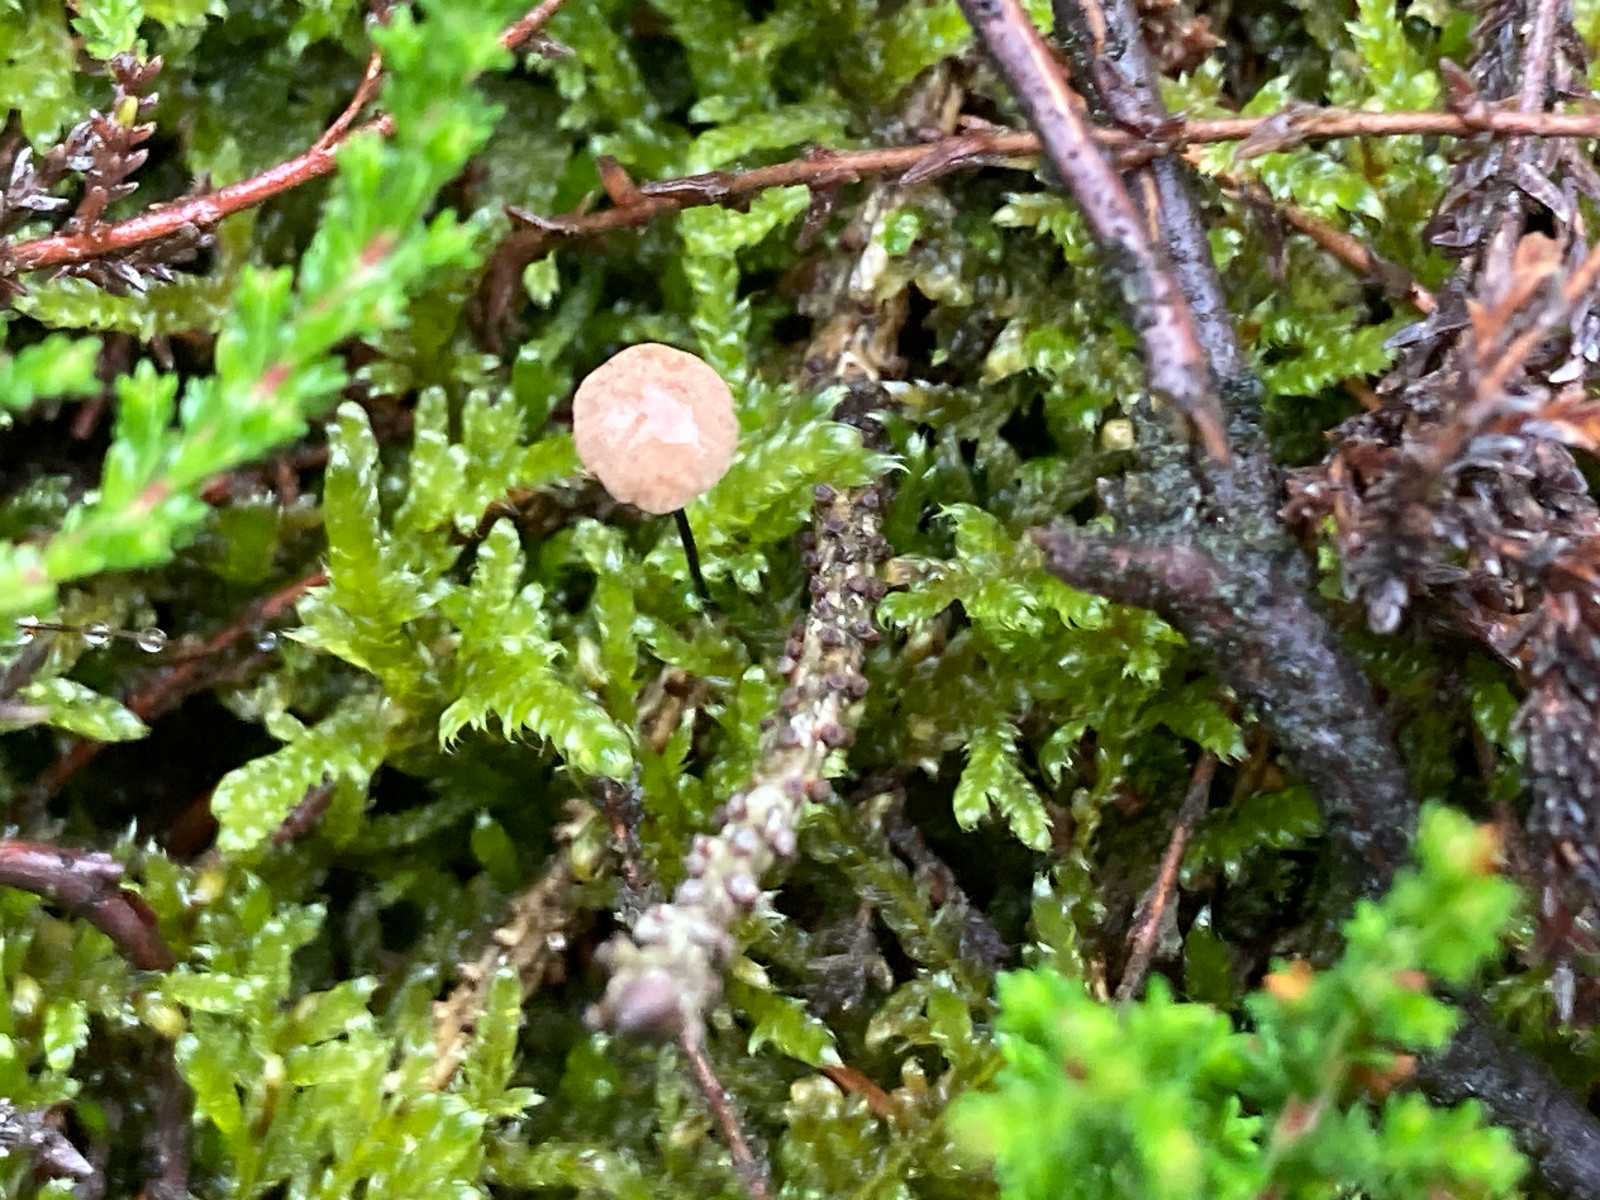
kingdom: Fungi
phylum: Basidiomycota
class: Agaricomycetes
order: Agaricales
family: Omphalotaceae
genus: Gymnopus
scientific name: Gymnopus androsaceus
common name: trådstokket fladhat
